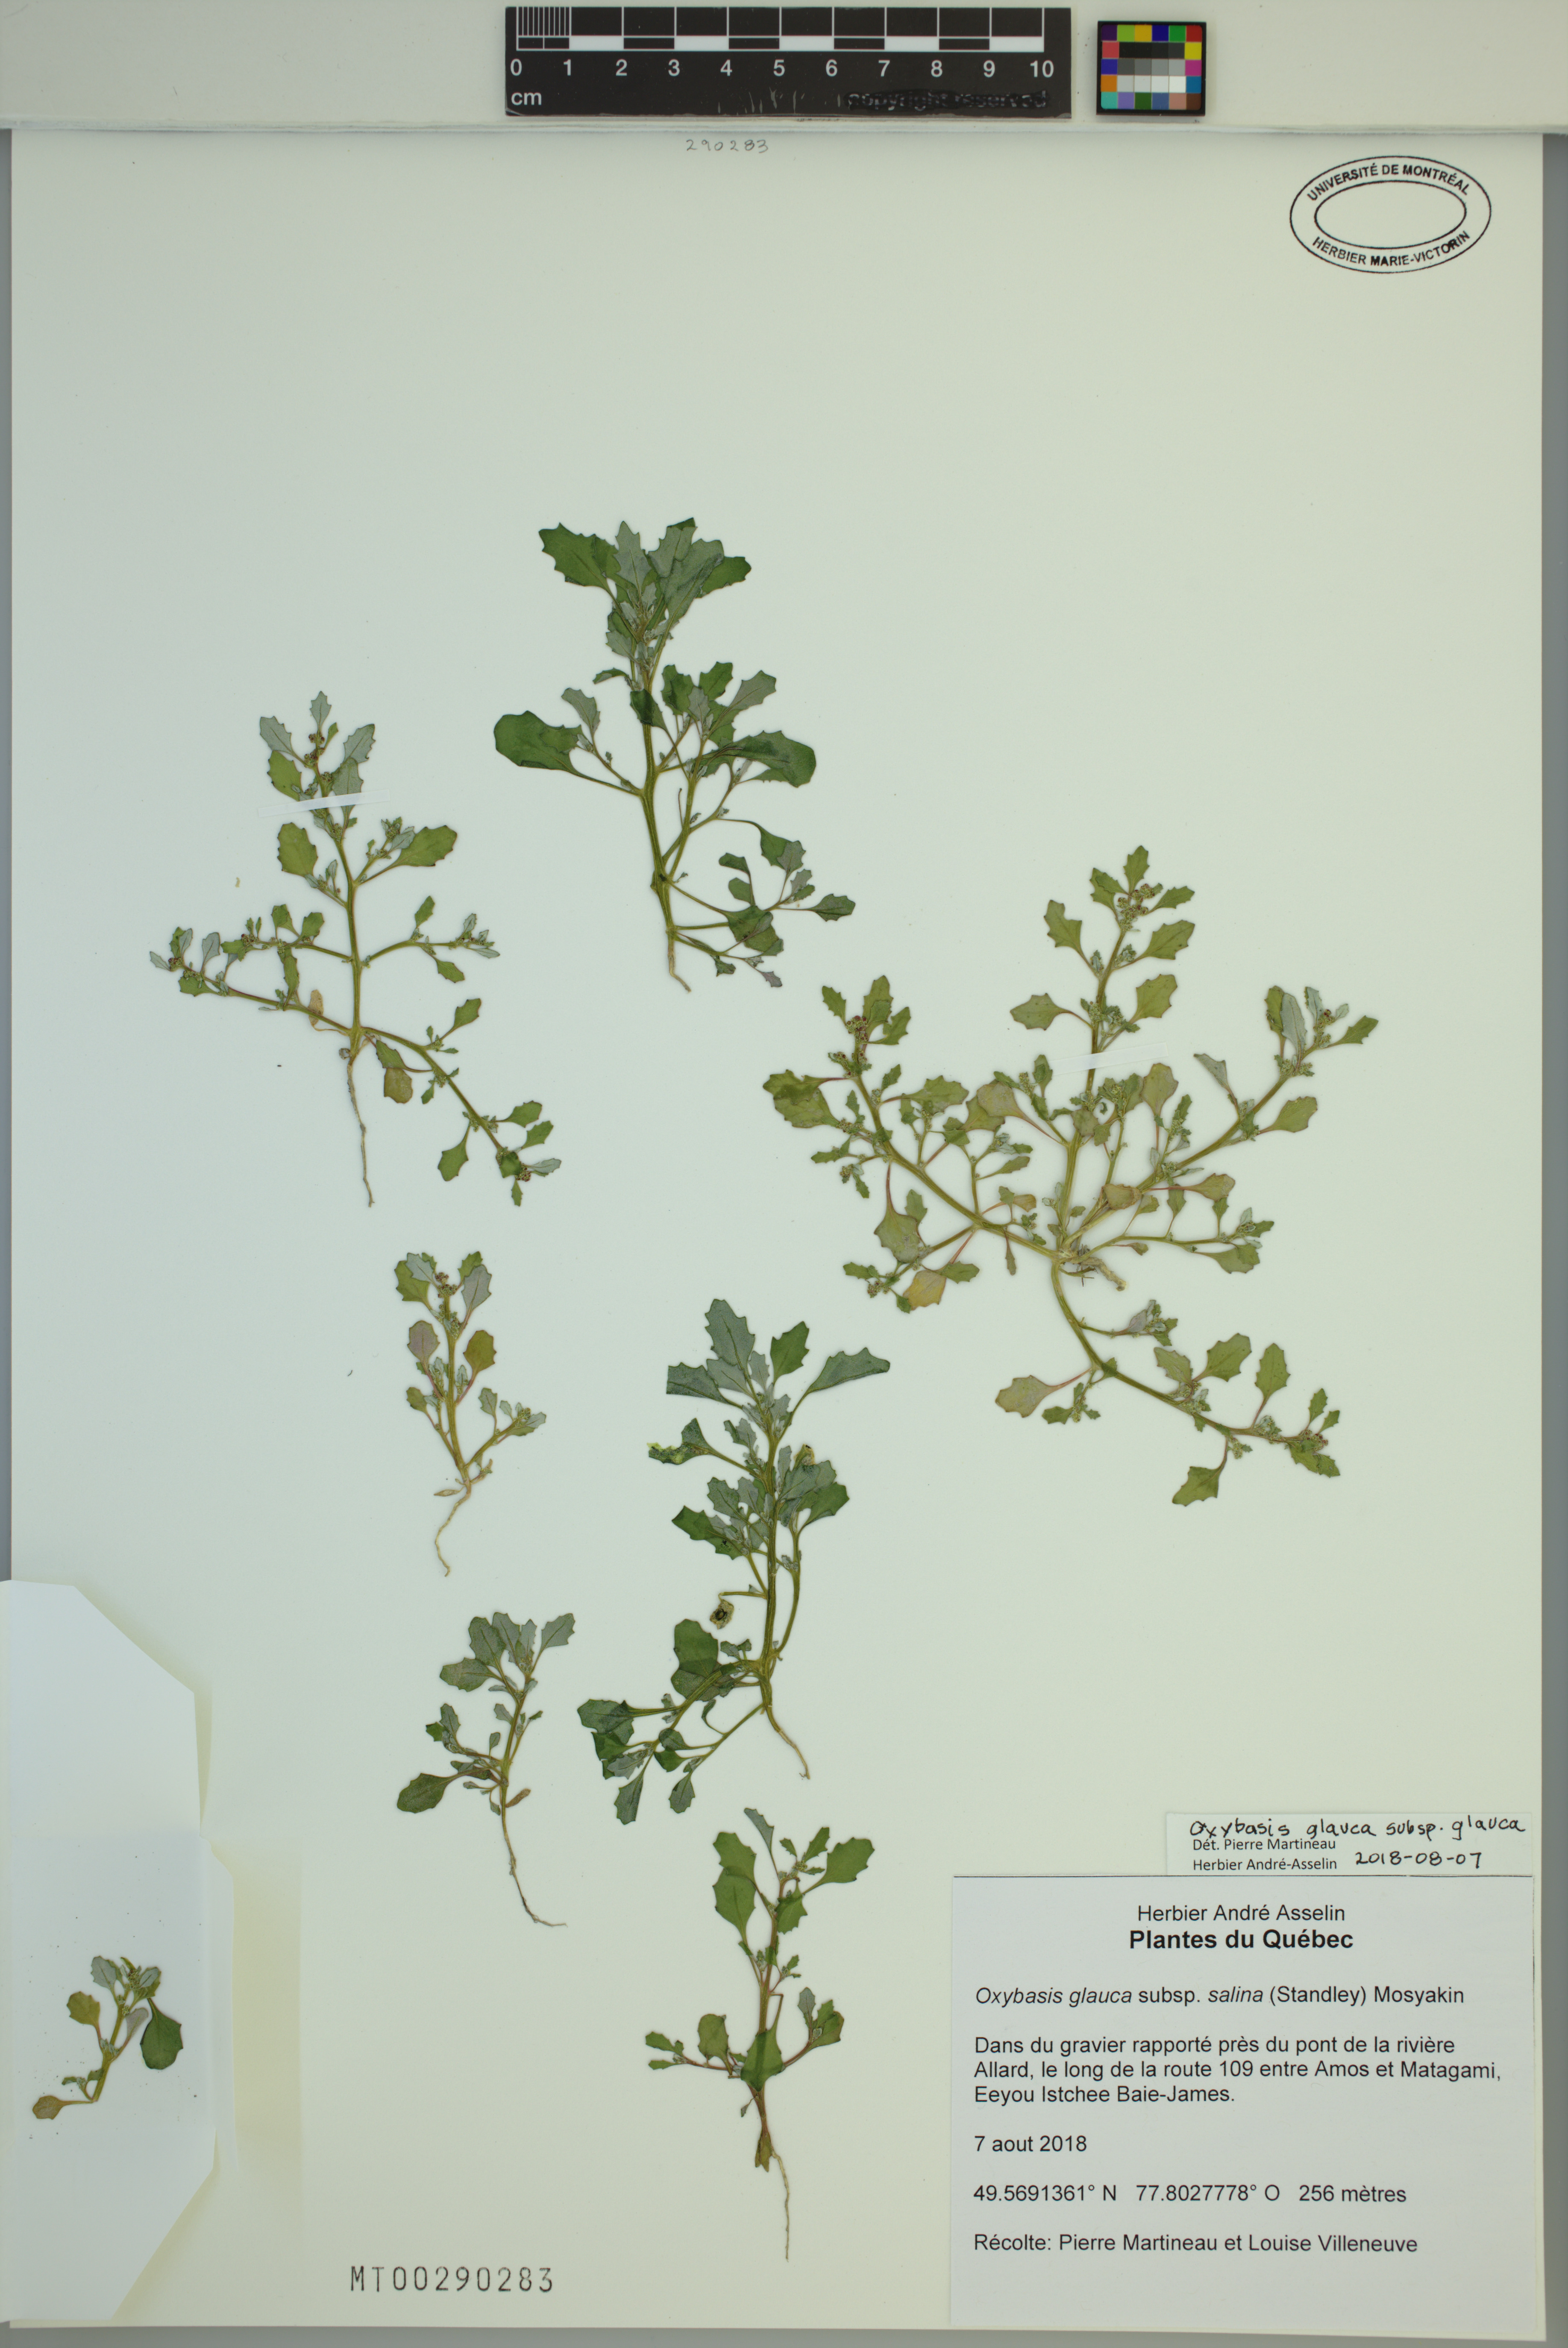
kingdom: Plantae
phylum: Tracheophyta
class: Magnoliopsida
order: Caryophyllales
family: Amaranthaceae
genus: Oxybasis
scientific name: Oxybasis glauca
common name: Glaucous goosefoot
